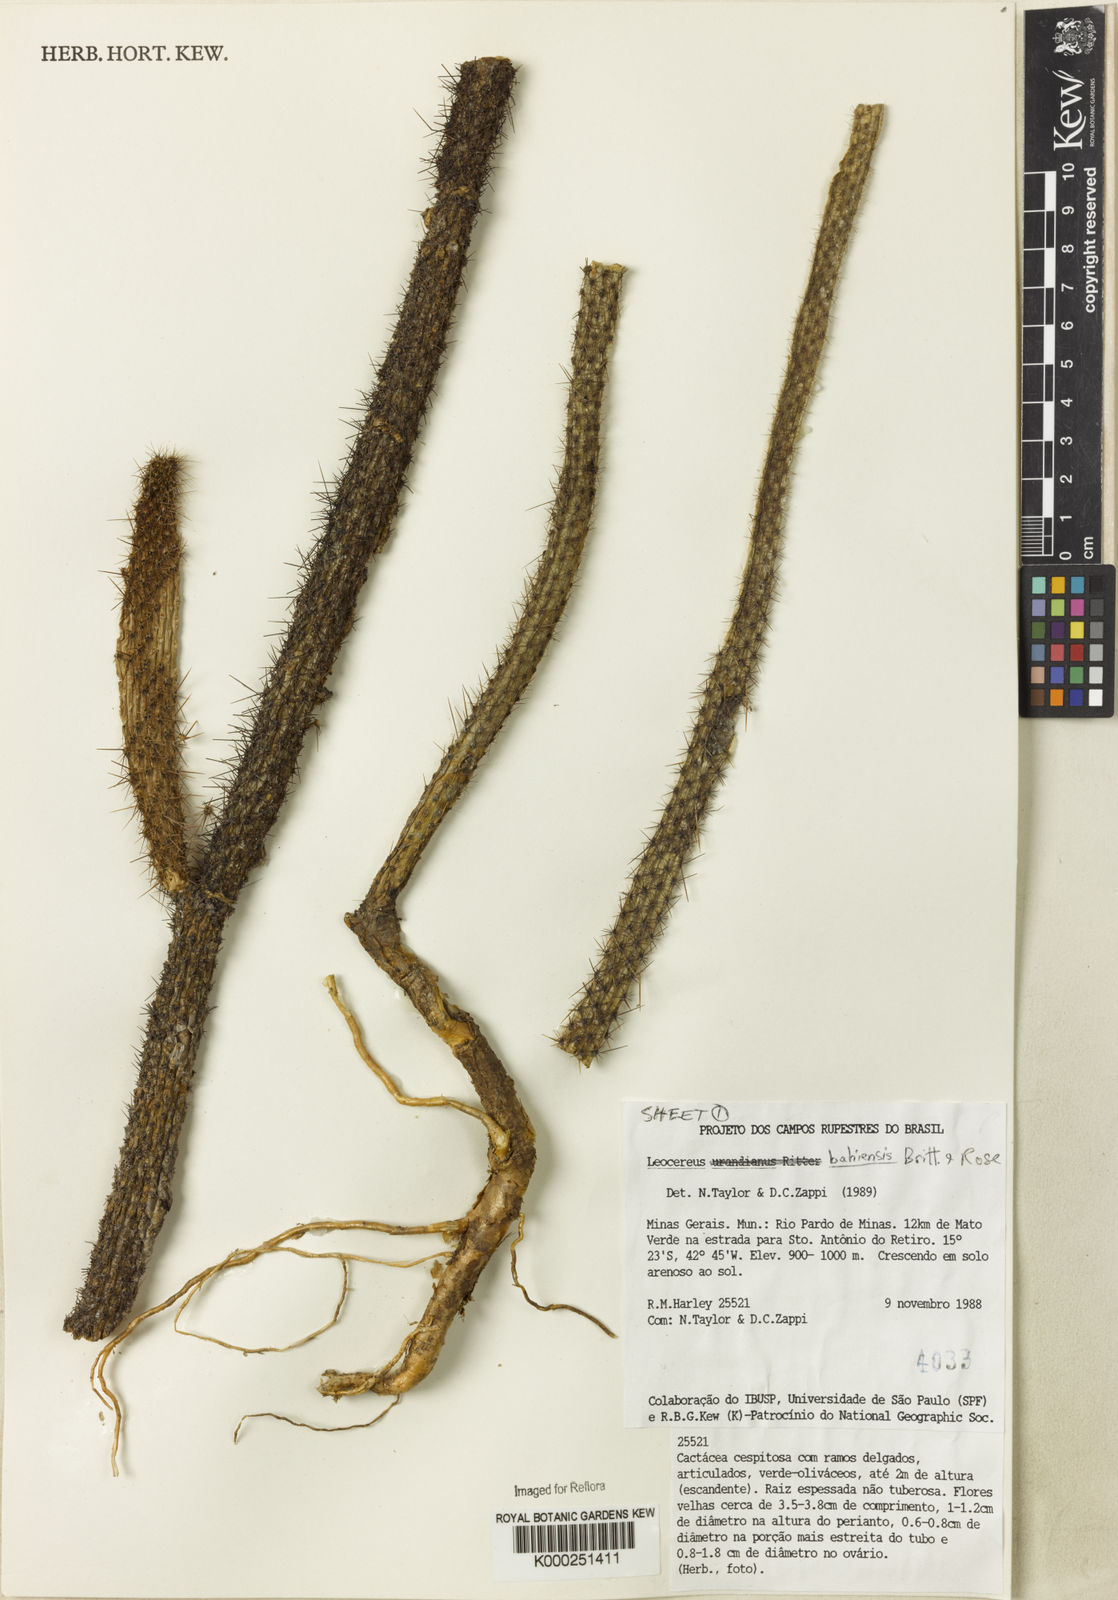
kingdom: Plantae
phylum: Tracheophyta
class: Magnoliopsida
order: Caryophyllales
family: Cactaceae
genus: Leocereus
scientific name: Leocereus bahiensis
